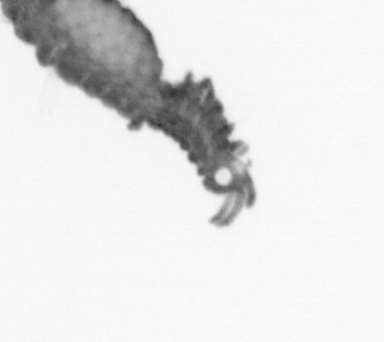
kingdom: Animalia
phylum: Annelida
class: Polychaeta
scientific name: Polychaeta
